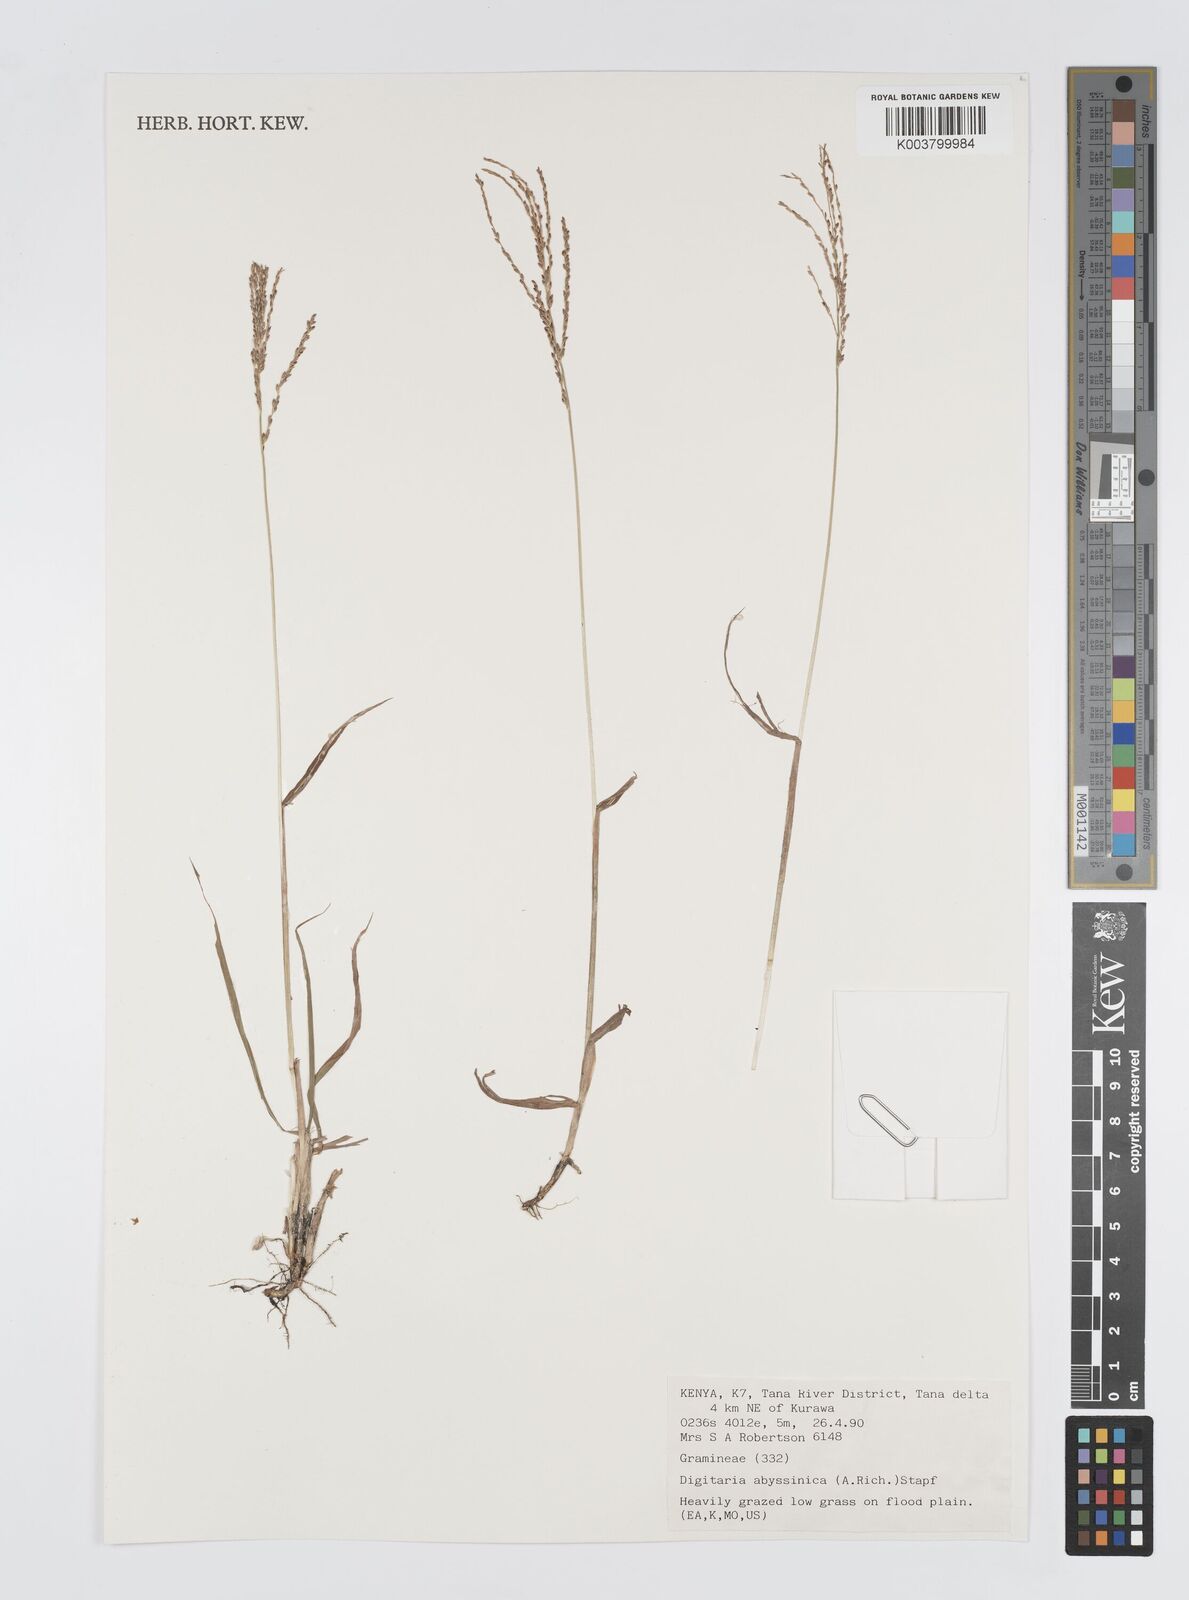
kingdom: Plantae
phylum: Tracheophyta
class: Liliopsida
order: Poales
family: Poaceae
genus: Digitaria
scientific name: Digitaria abyssinica
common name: African couchgrass
